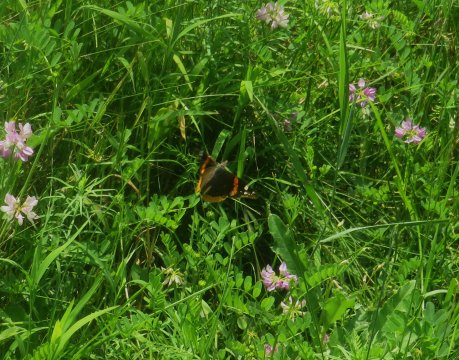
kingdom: Animalia
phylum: Arthropoda
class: Insecta
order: Lepidoptera
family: Nymphalidae
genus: Vanessa
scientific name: Vanessa atalanta
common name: Red Admiral
